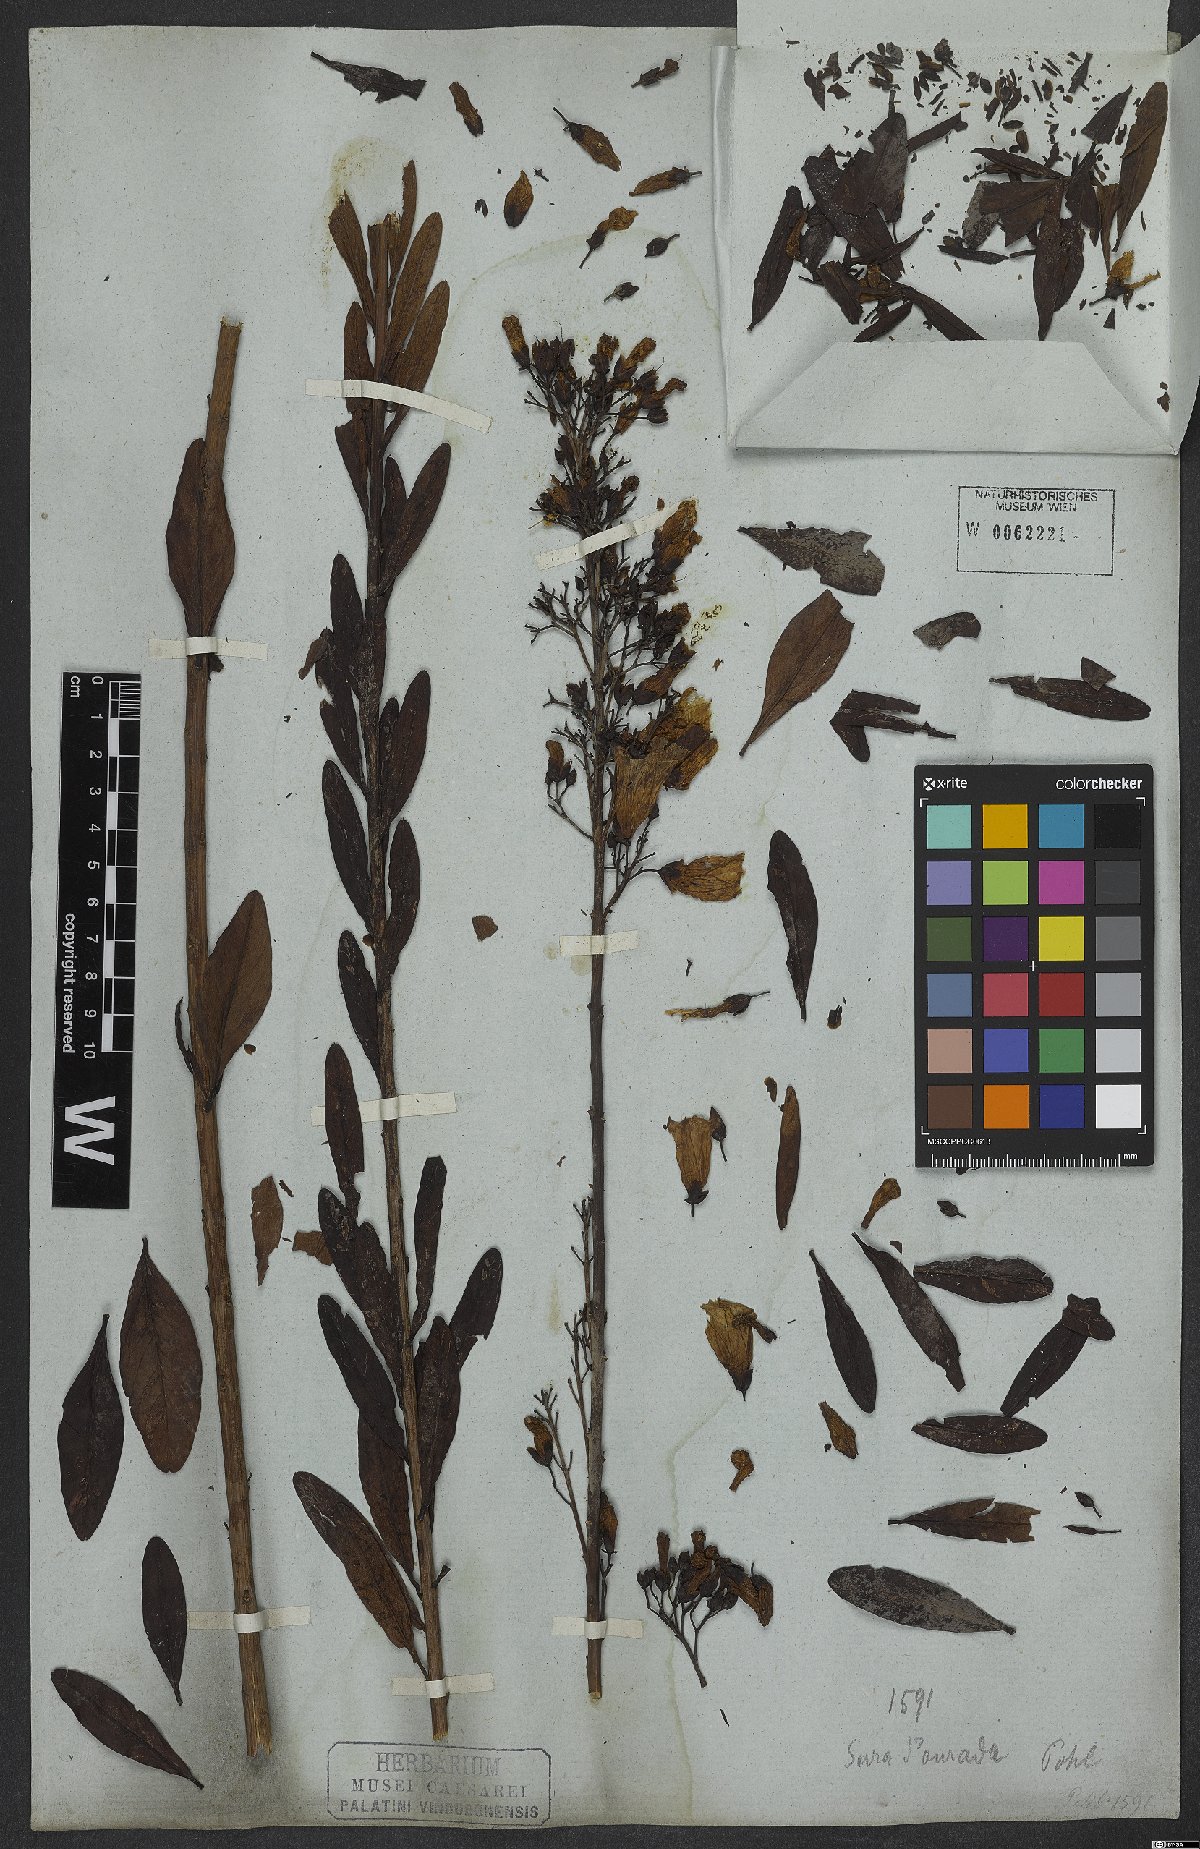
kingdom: Plantae
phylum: Tracheophyta
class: Magnoliopsida
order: Solanales
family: Convolvulaceae
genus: Ipomoea
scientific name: Ipomoea hederifolia
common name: Ivy-leaf morning-glory
